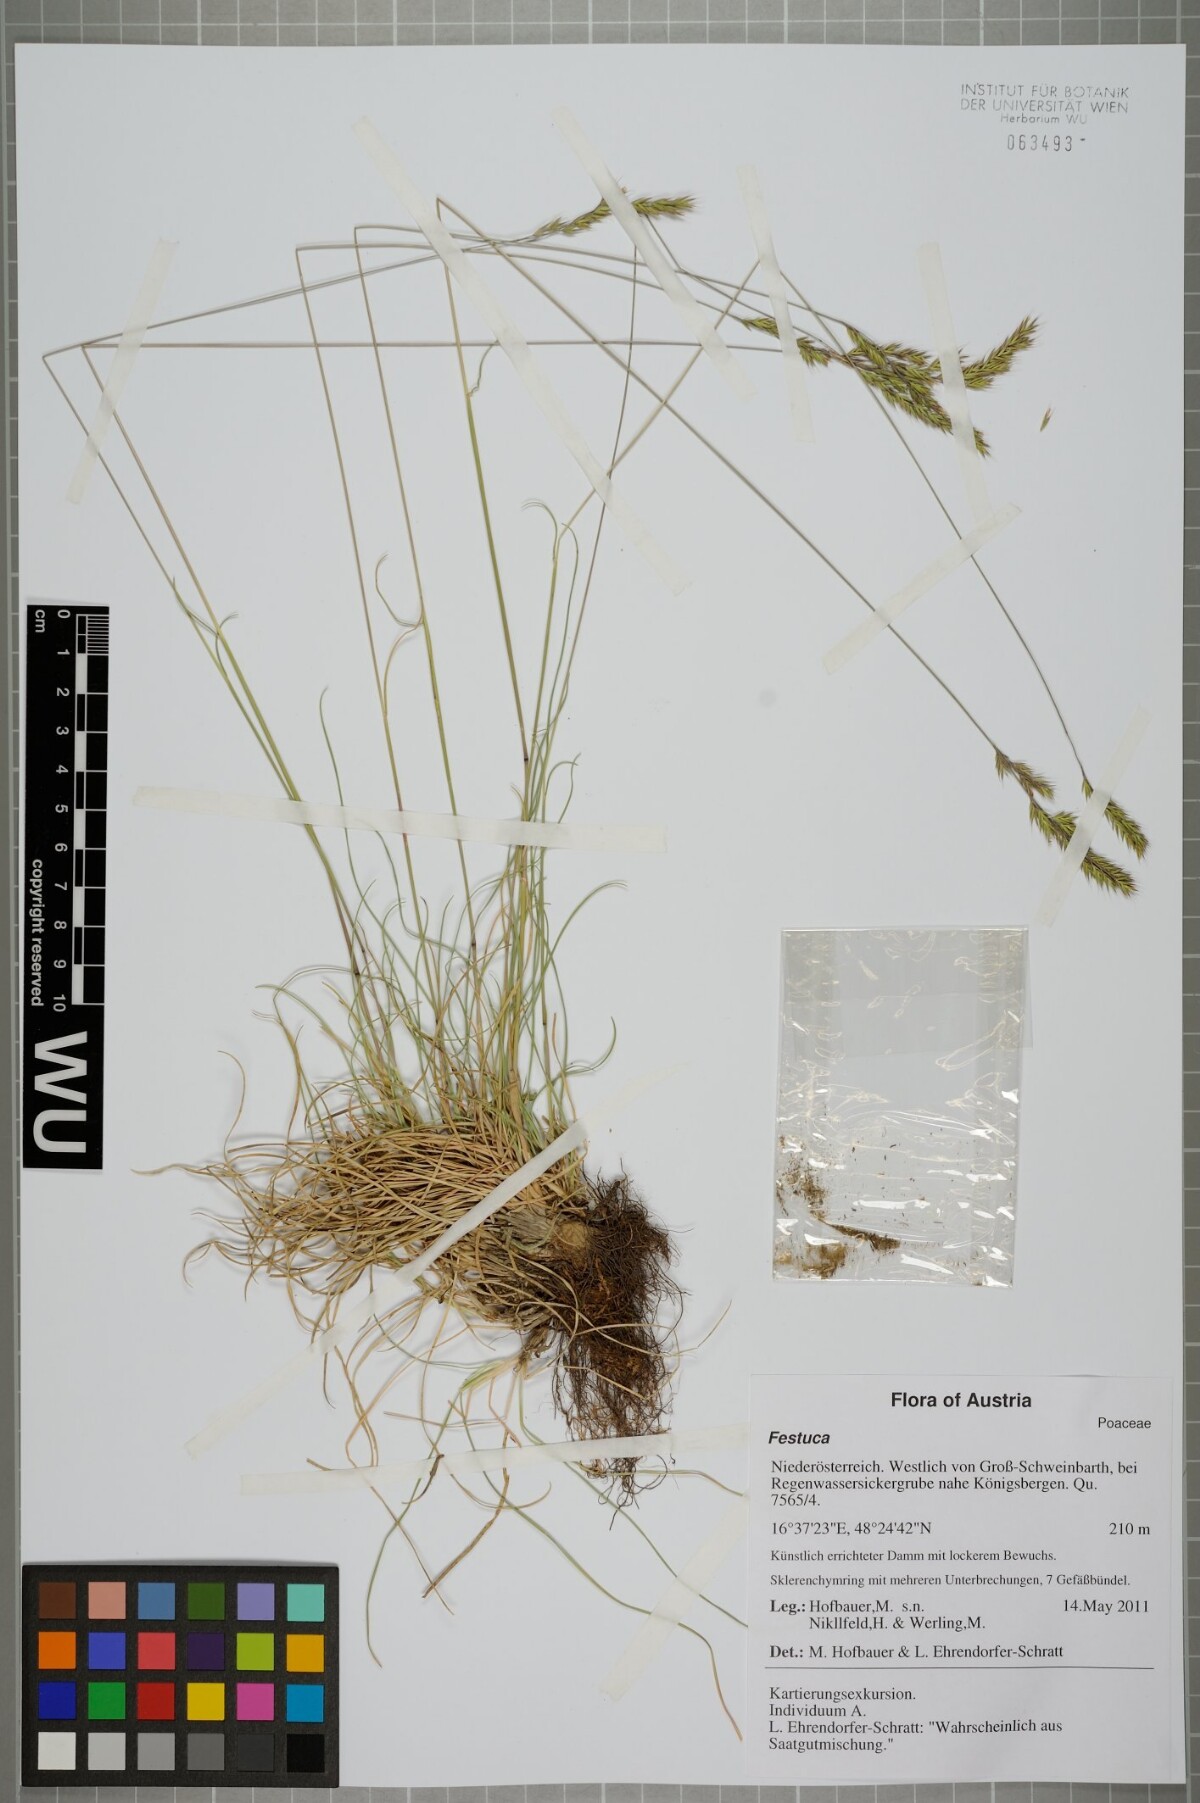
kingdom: Plantae
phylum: Tracheophyta
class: Liliopsida
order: Poales
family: Poaceae
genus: Festuca
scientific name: Festuca
